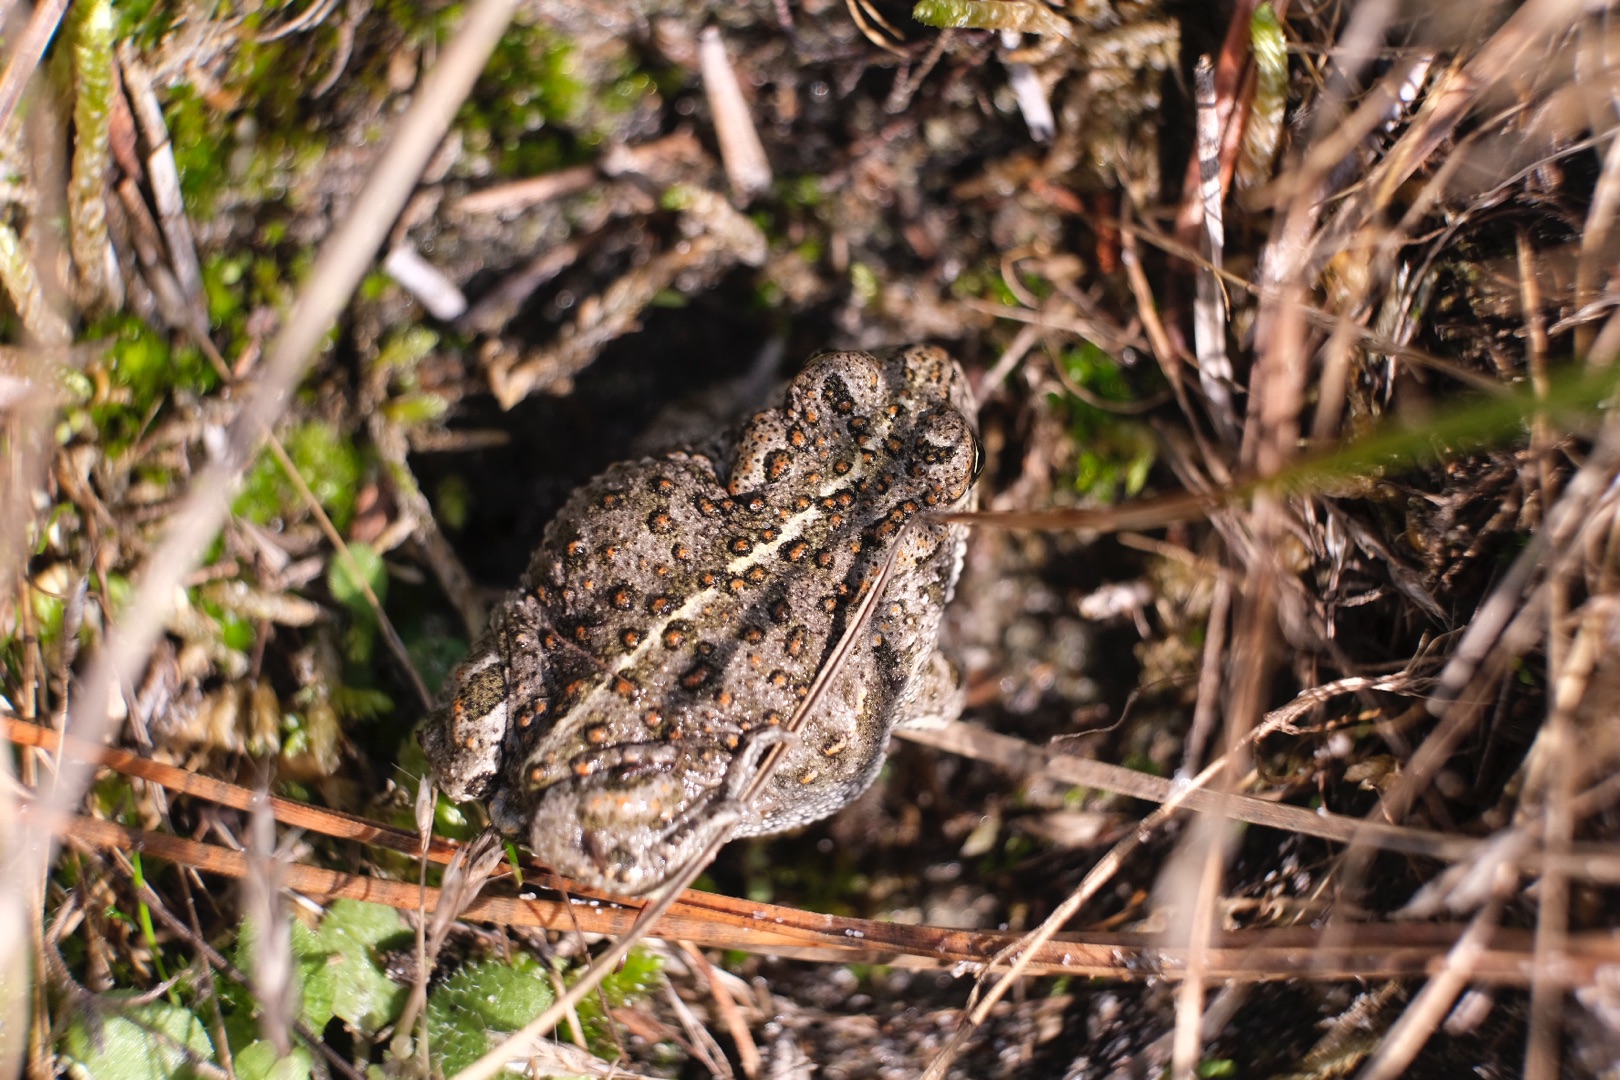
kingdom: Animalia
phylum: Chordata
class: Amphibia
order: Anura
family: Bufonidae
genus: Epidalea
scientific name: Epidalea calamita
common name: Strandtudse
